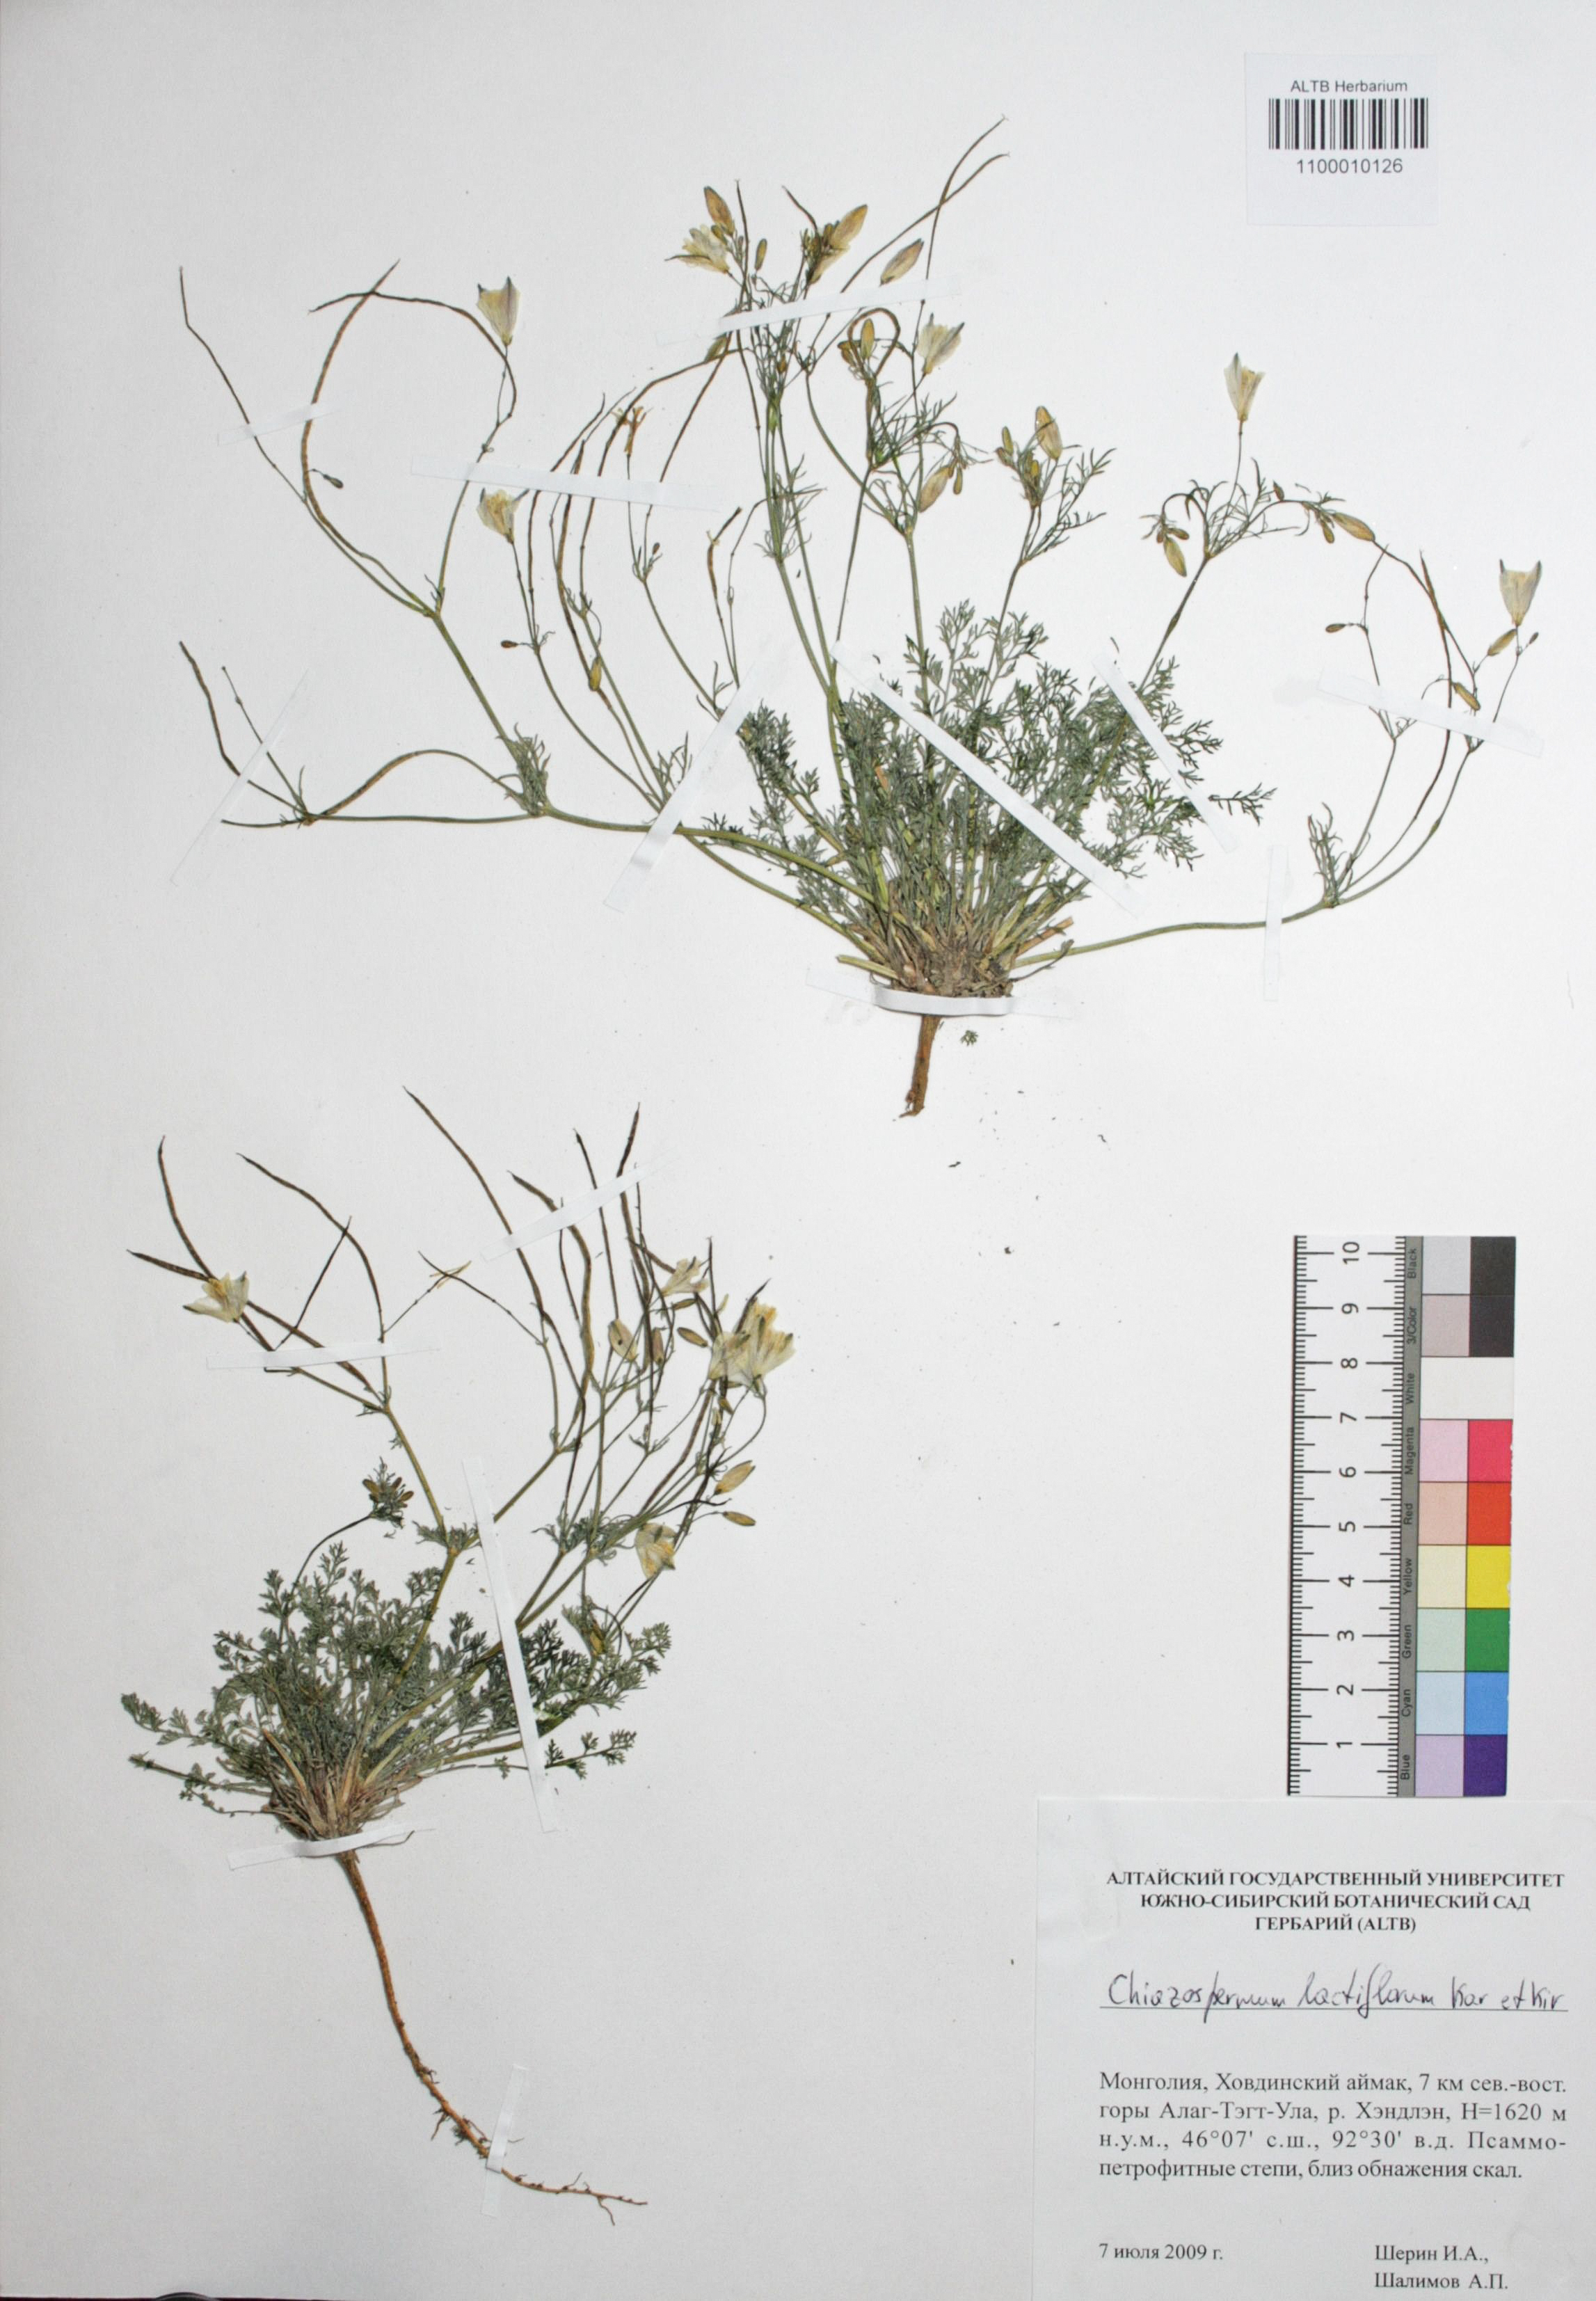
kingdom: Plantae
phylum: Tracheophyta
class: Magnoliopsida
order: Ranunculales
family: Papaveraceae
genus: Hypecoum
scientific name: Hypecoum lactiflorum
